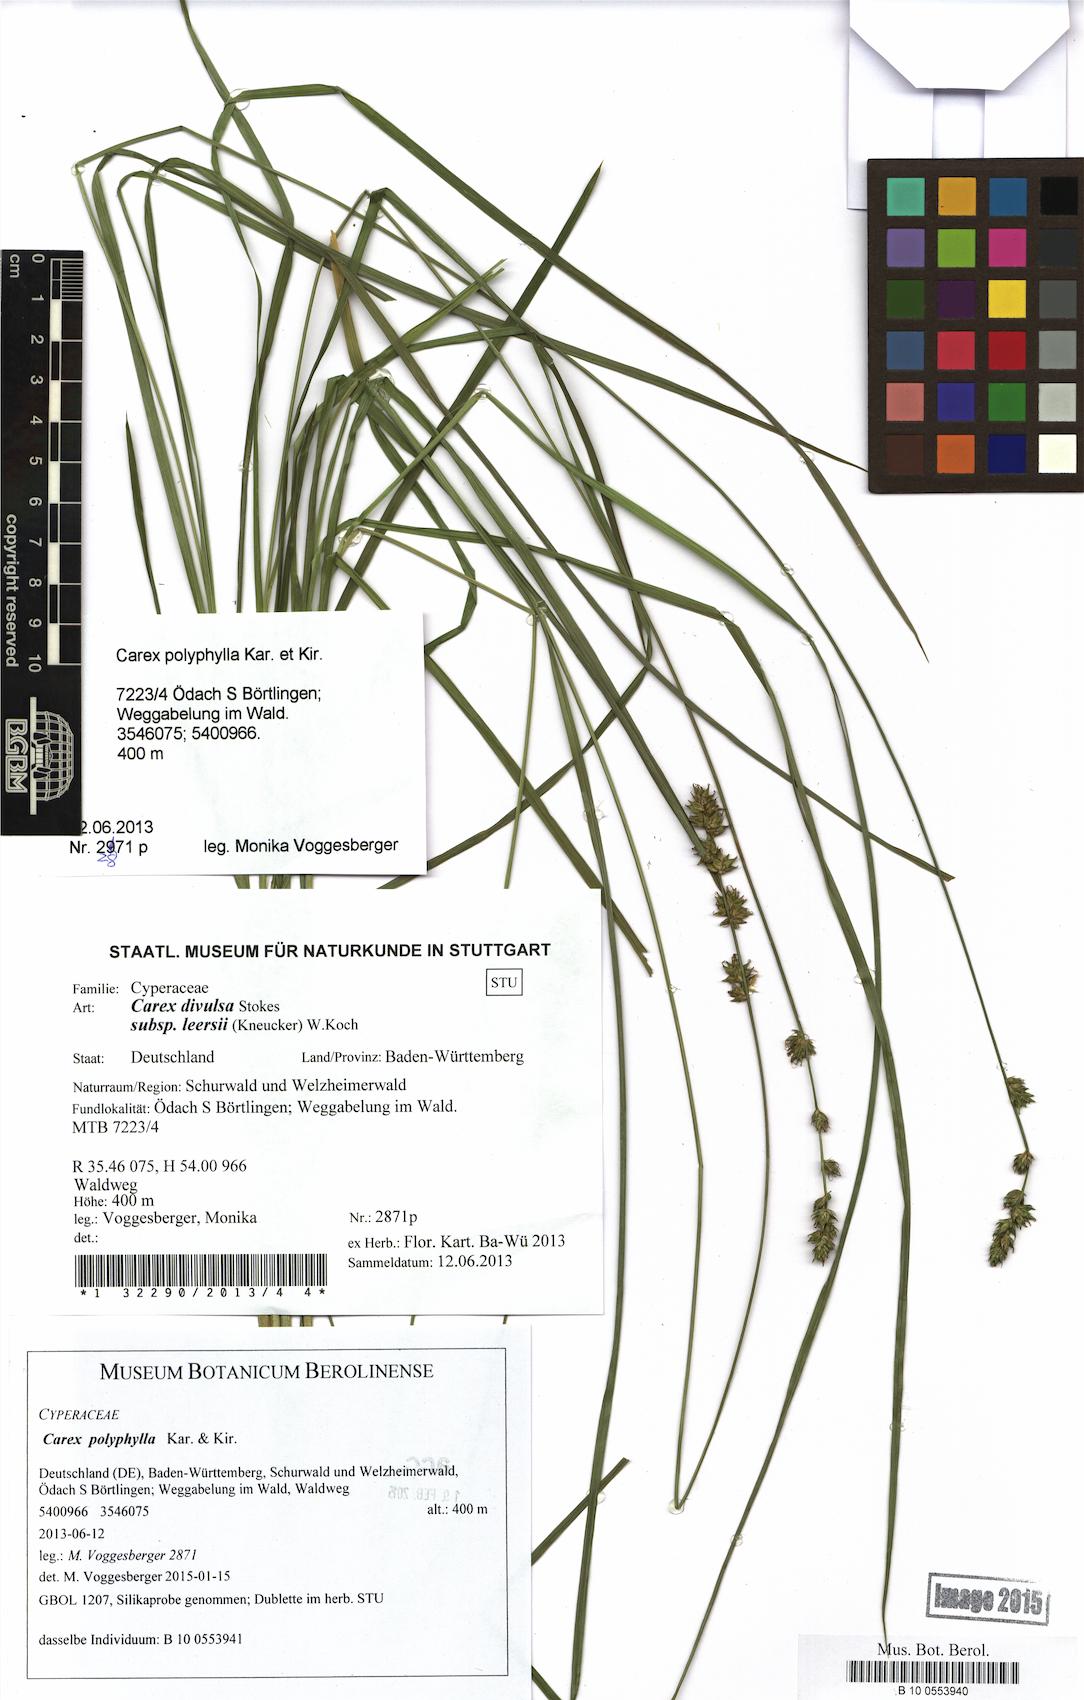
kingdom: Plantae
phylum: Tracheophyta
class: Liliopsida
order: Poales
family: Cyperaceae
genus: Carex
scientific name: Carex polyphylla
